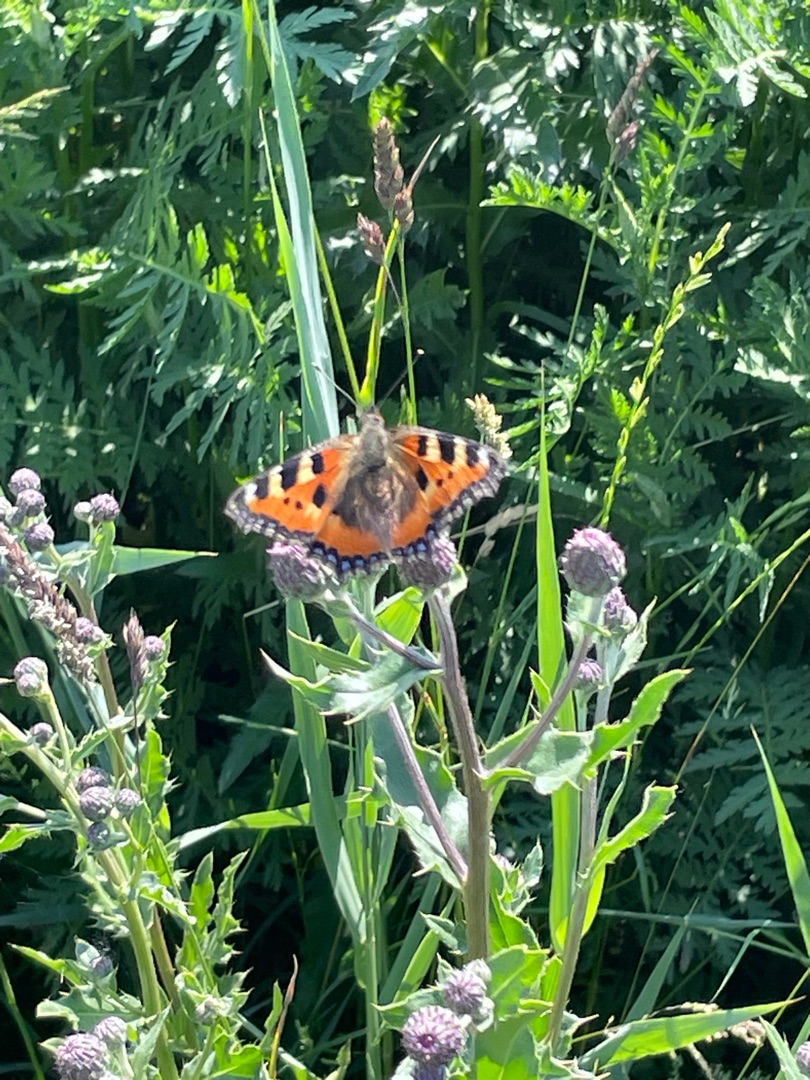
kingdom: Animalia
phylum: Arthropoda
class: Insecta
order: Lepidoptera
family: Nymphalidae
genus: Aglais
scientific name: Aglais urticae
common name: Nældens takvinge
